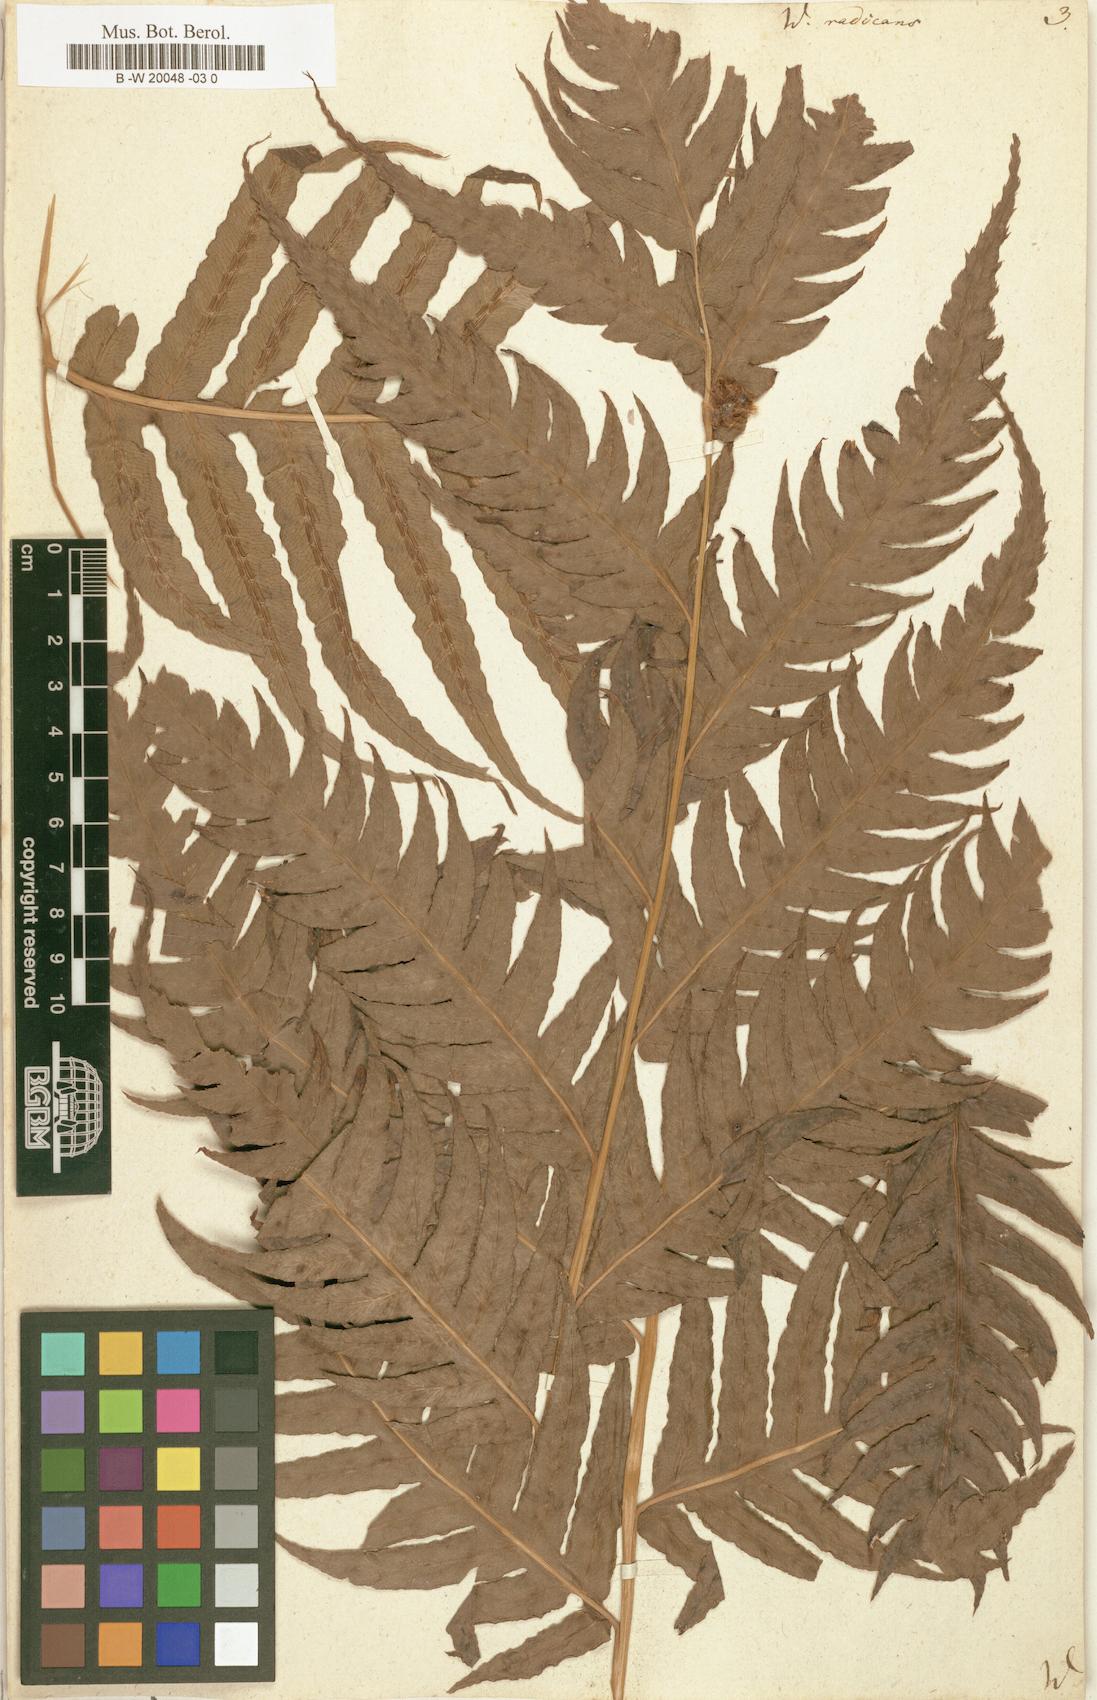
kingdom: Plantae
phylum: Tracheophyta
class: Polypodiopsida
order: Polypodiales
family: Blechnaceae
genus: Woodwardia
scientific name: Woodwardia radicans
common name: Rooting chainfern
